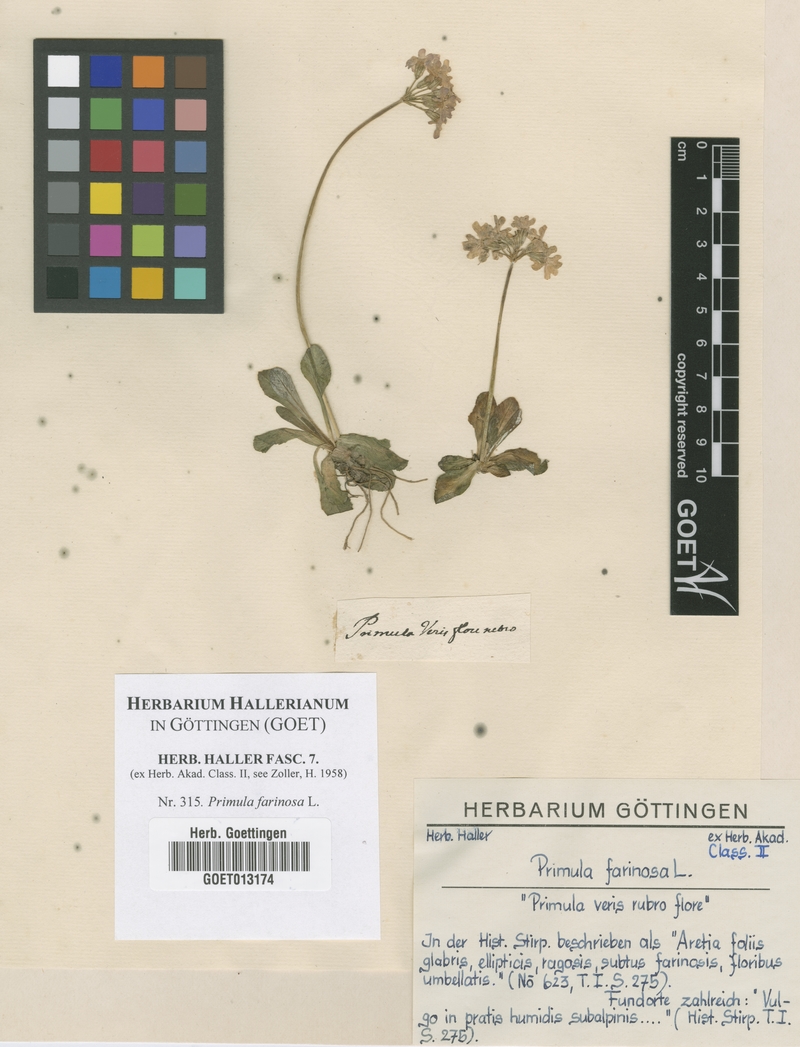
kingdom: Plantae
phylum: Tracheophyta
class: Magnoliopsida
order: Ericales
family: Primulaceae
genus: Primula
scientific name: Primula farinosa
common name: Bird's-eye primrose
